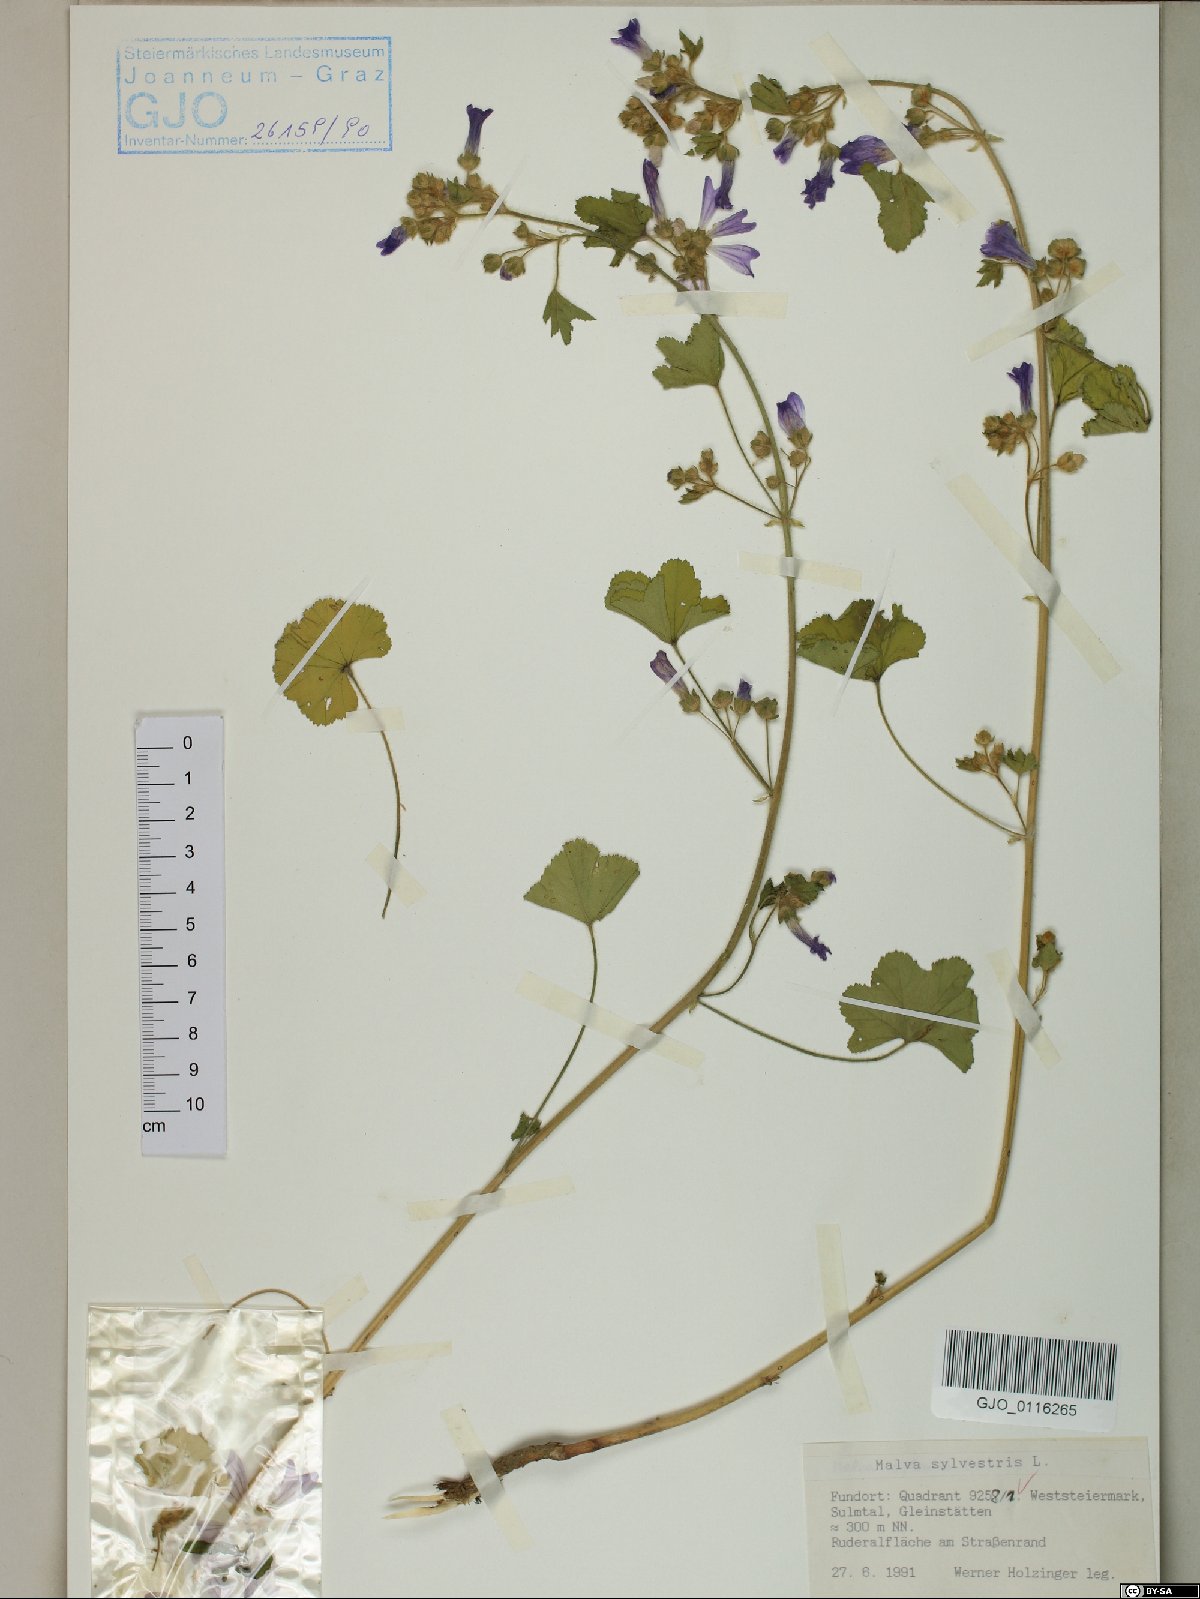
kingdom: Plantae
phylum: Tracheophyta
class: Magnoliopsida
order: Malvales
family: Malvaceae
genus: Malva
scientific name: Malva sylvestris
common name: Common mallow
